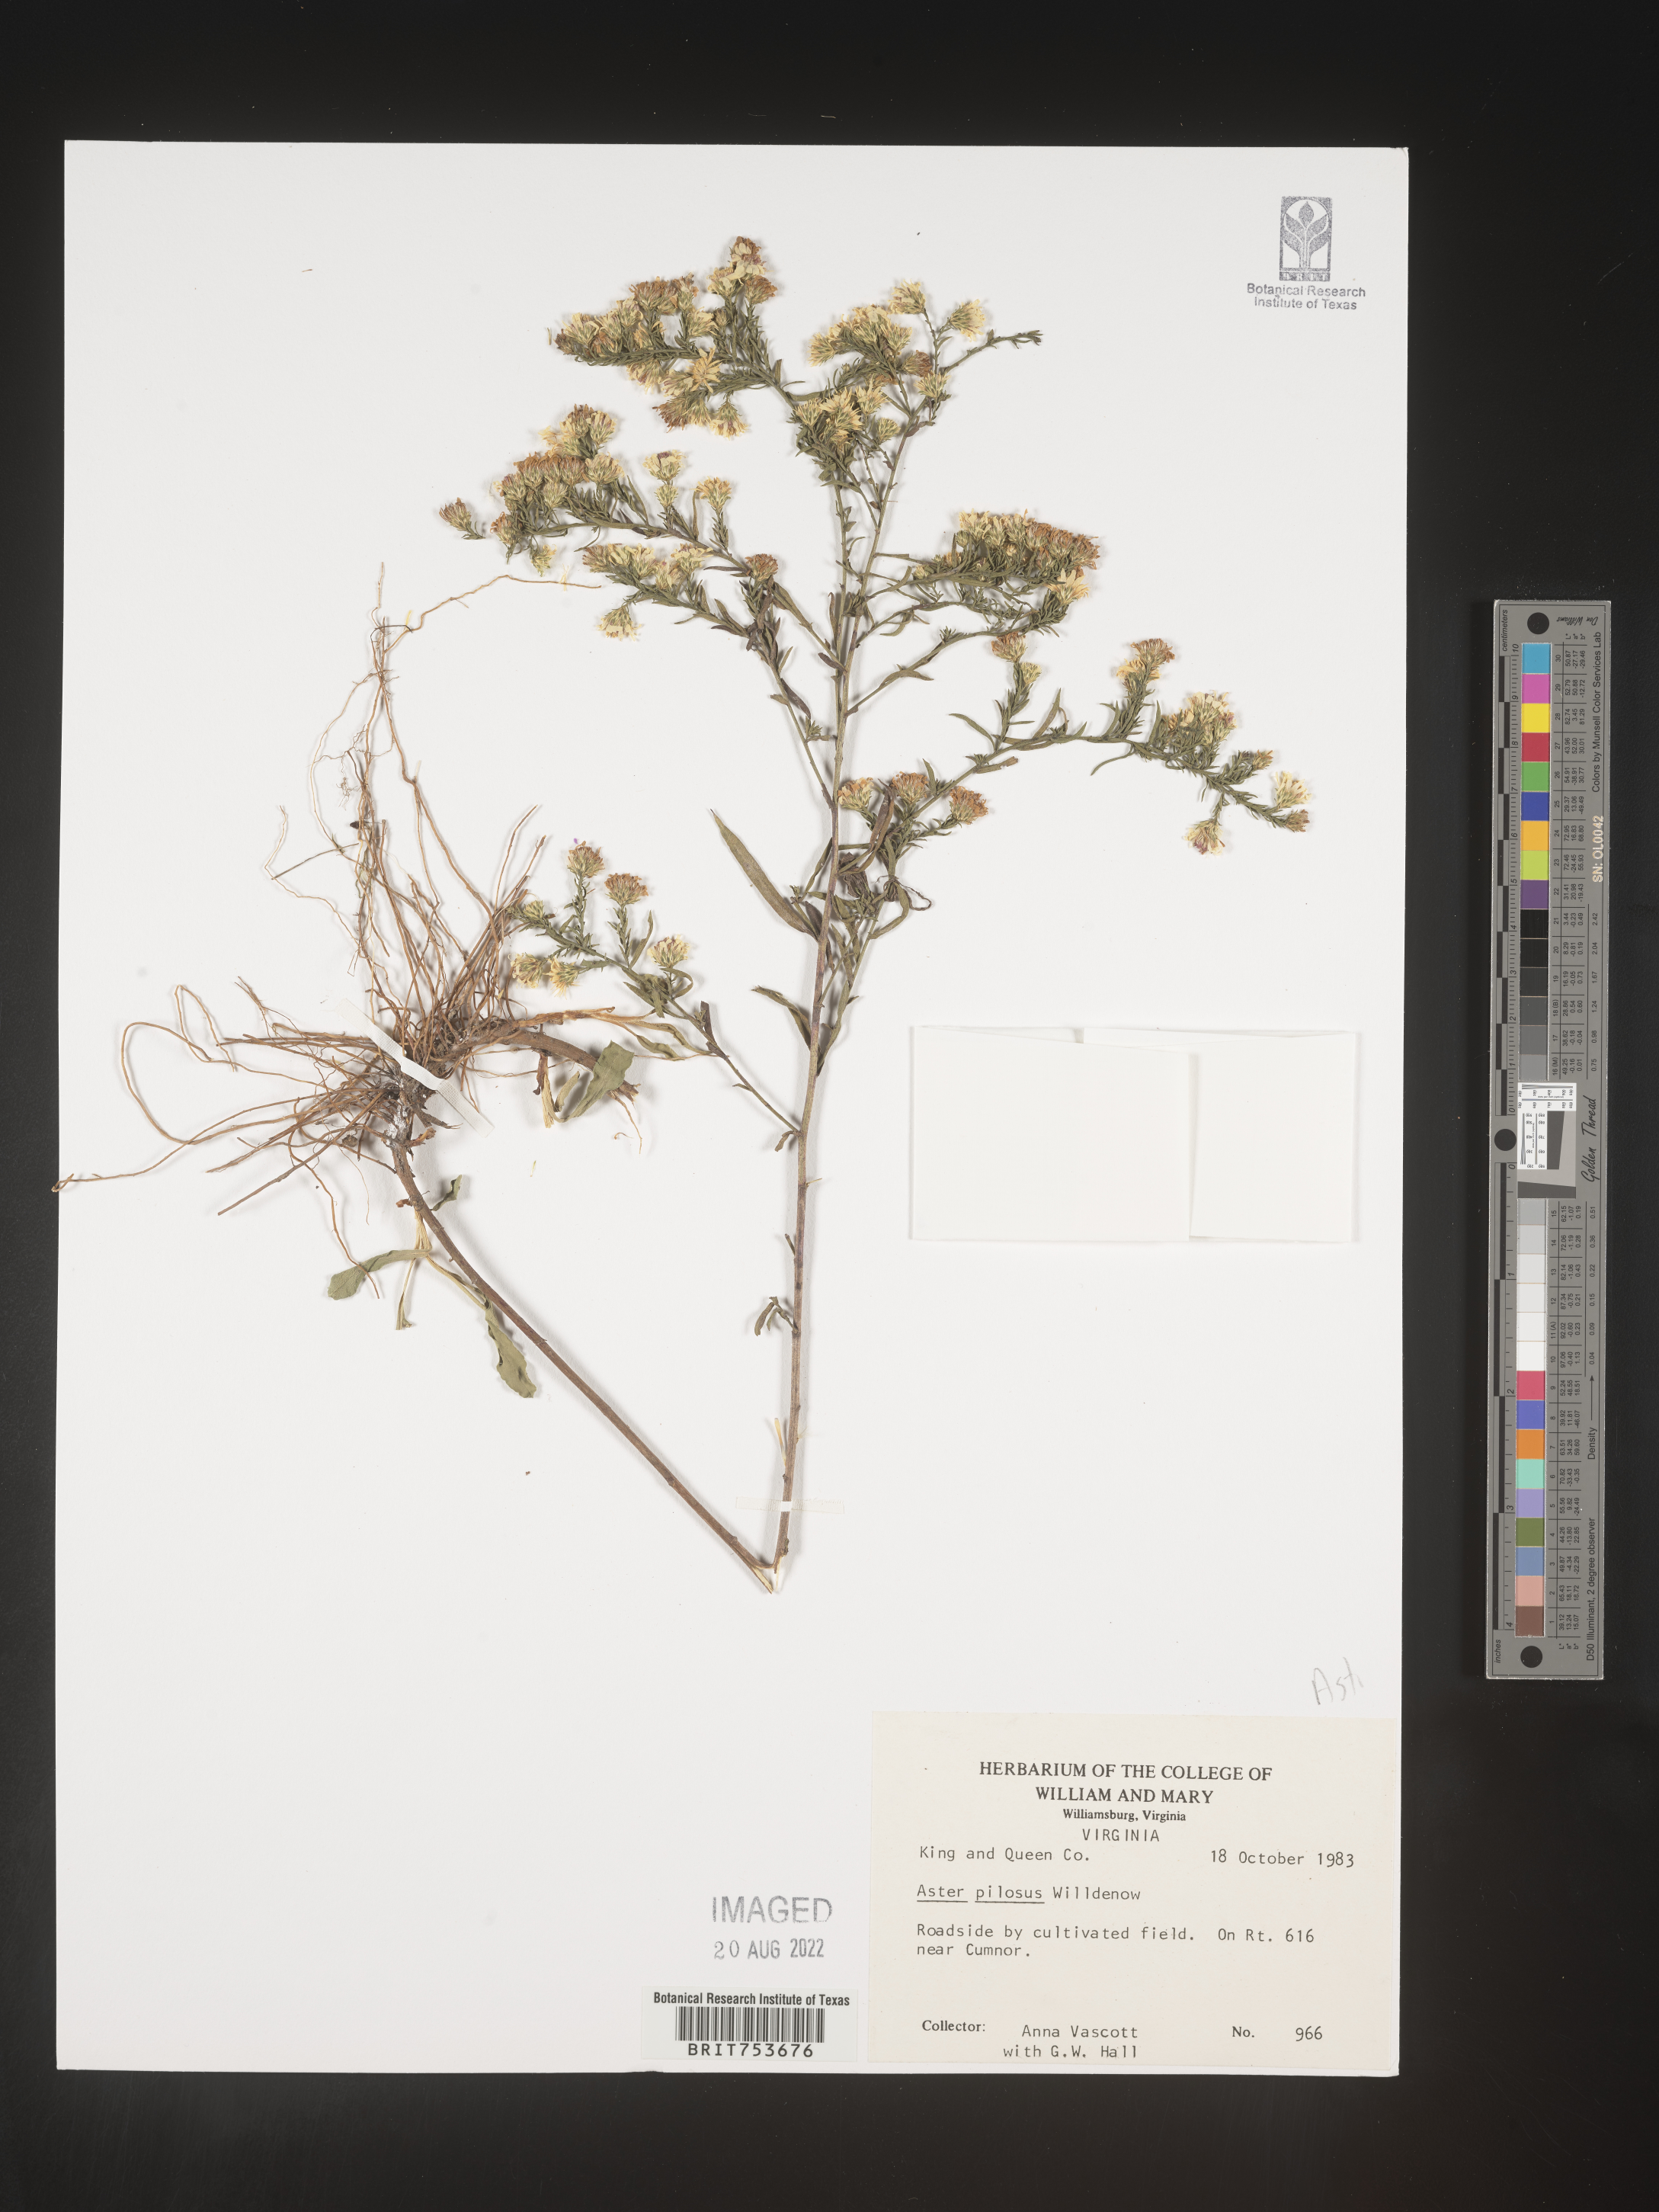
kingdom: Plantae
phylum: Tracheophyta
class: Magnoliopsida
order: Asterales
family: Asteraceae
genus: Symphyotrichum
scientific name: Symphyotrichum pilosum
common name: Awl aster
